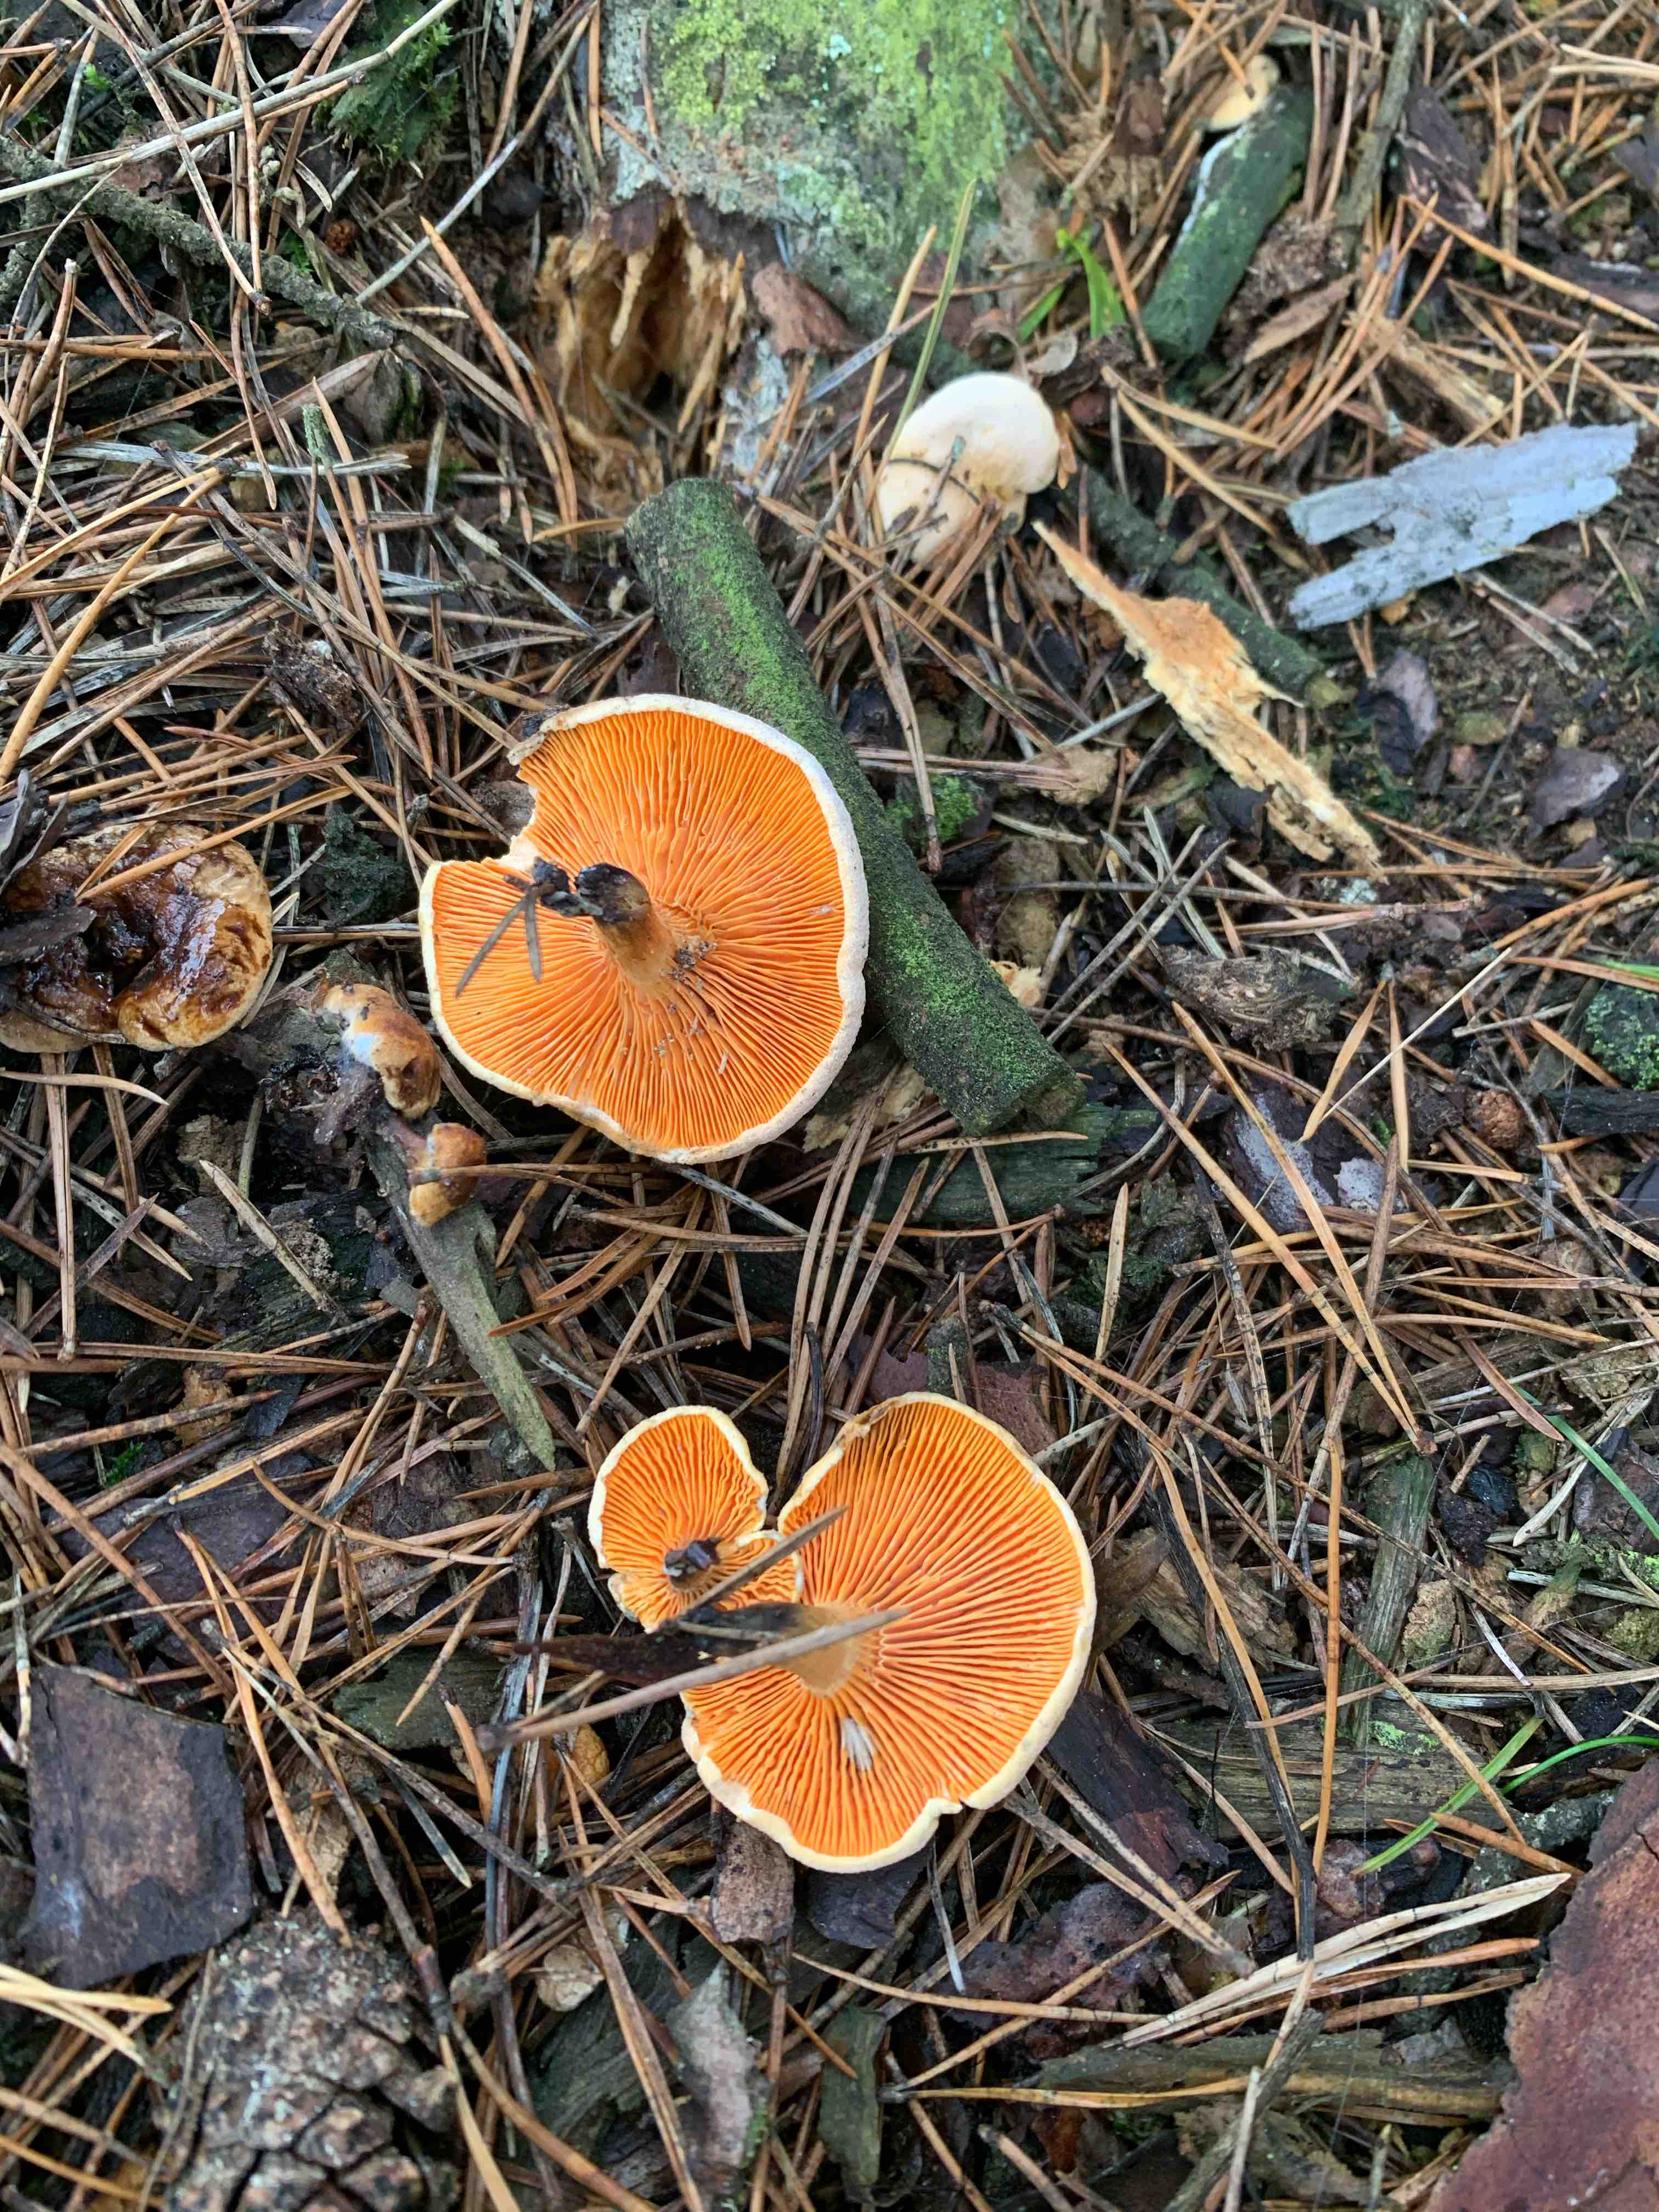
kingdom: Fungi
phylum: Basidiomycota
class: Agaricomycetes
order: Boletales
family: Hygrophoropsidaceae
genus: Hygrophoropsis
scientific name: Hygrophoropsis aurantiaca
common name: almindelig orangekantarel
